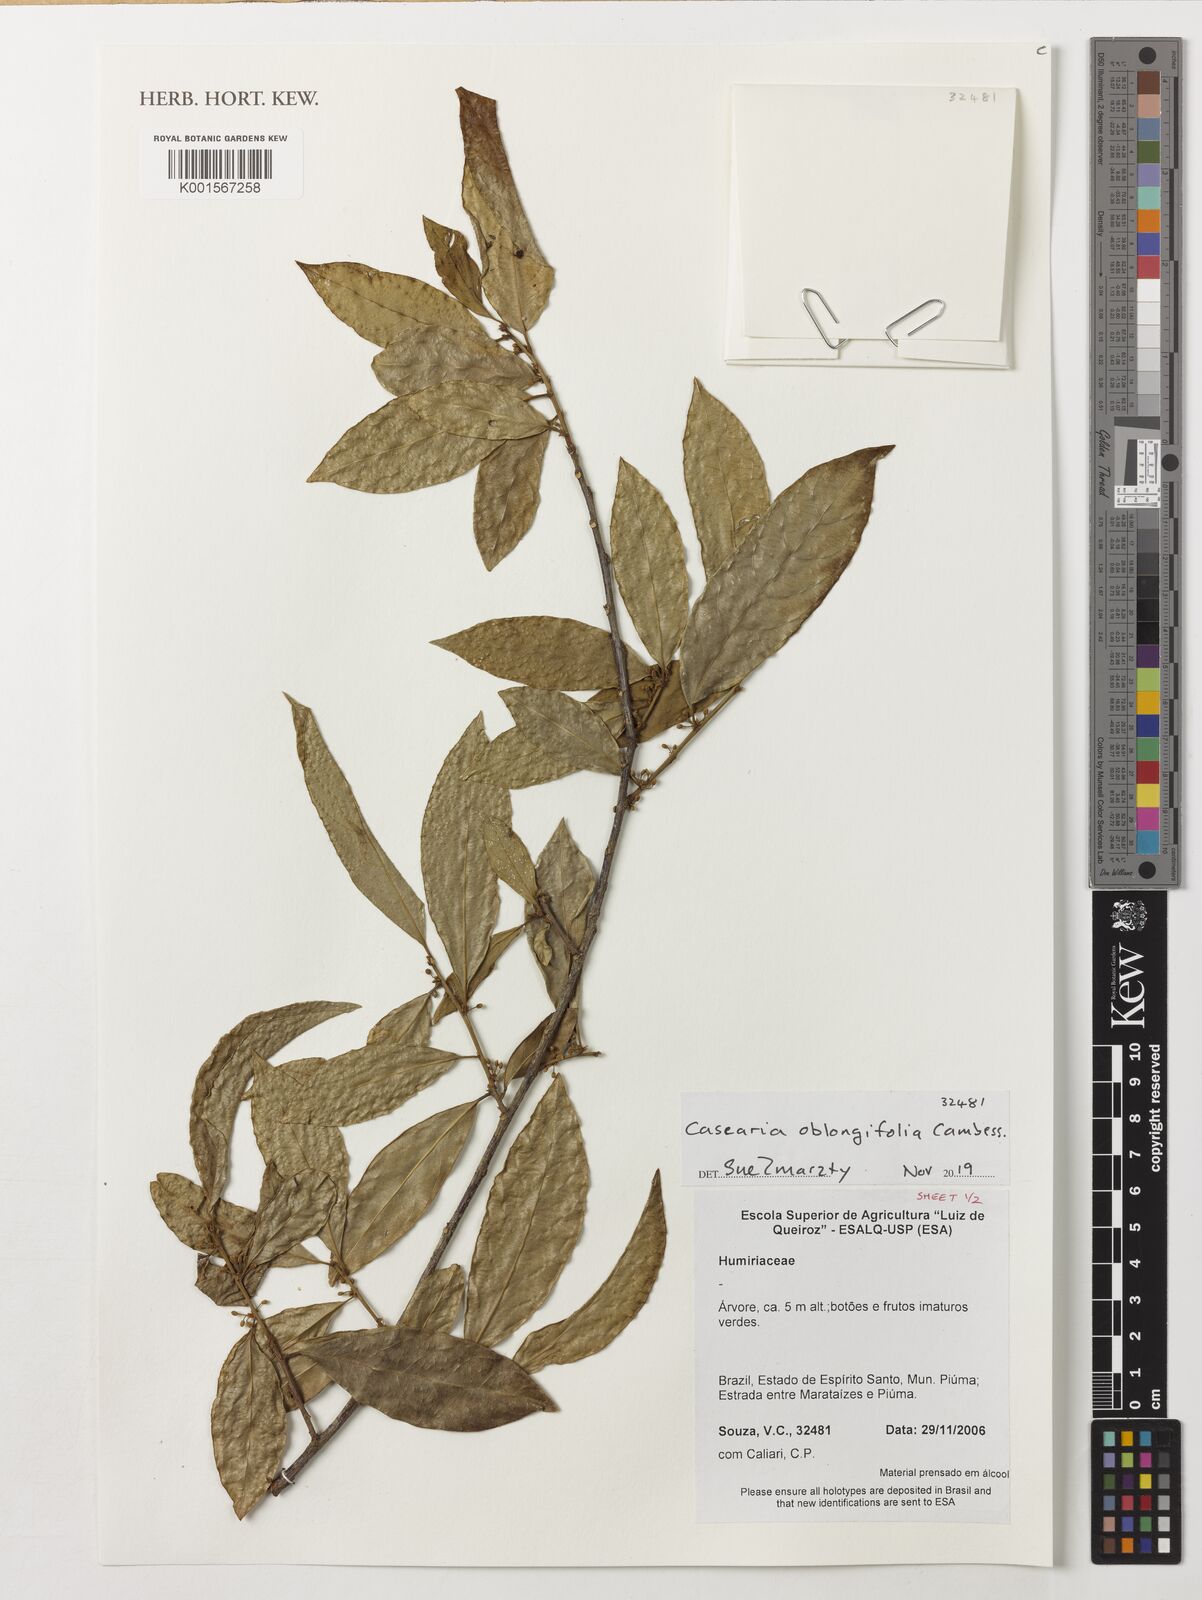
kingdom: Plantae
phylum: Tracheophyta
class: Magnoliopsida
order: Malpighiales
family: Salicaceae
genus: Casearia
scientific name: Casearia oblongifolia
